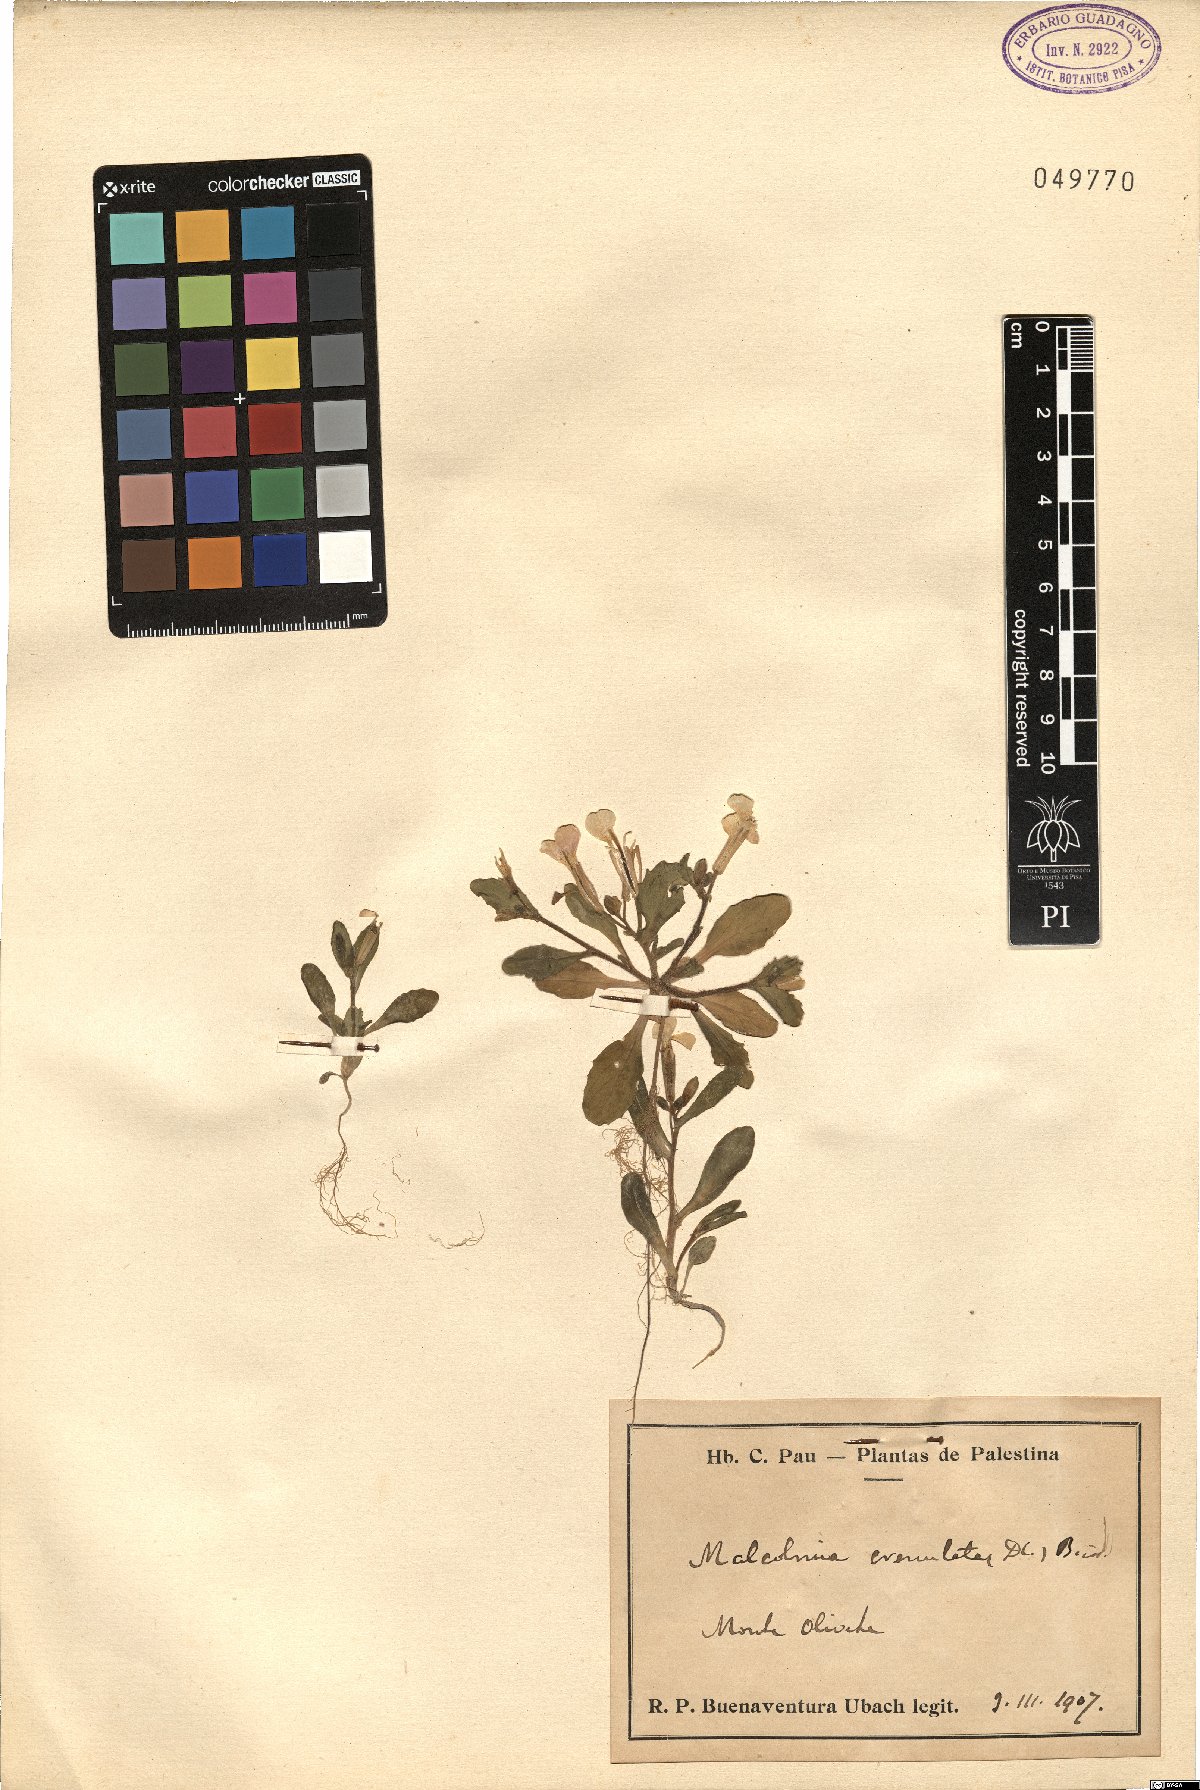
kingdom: Plantae
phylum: Tracheophyta
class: Magnoliopsida
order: Brassicales
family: Brassicaceae
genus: Zuvanda
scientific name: Zuvanda crenulata
